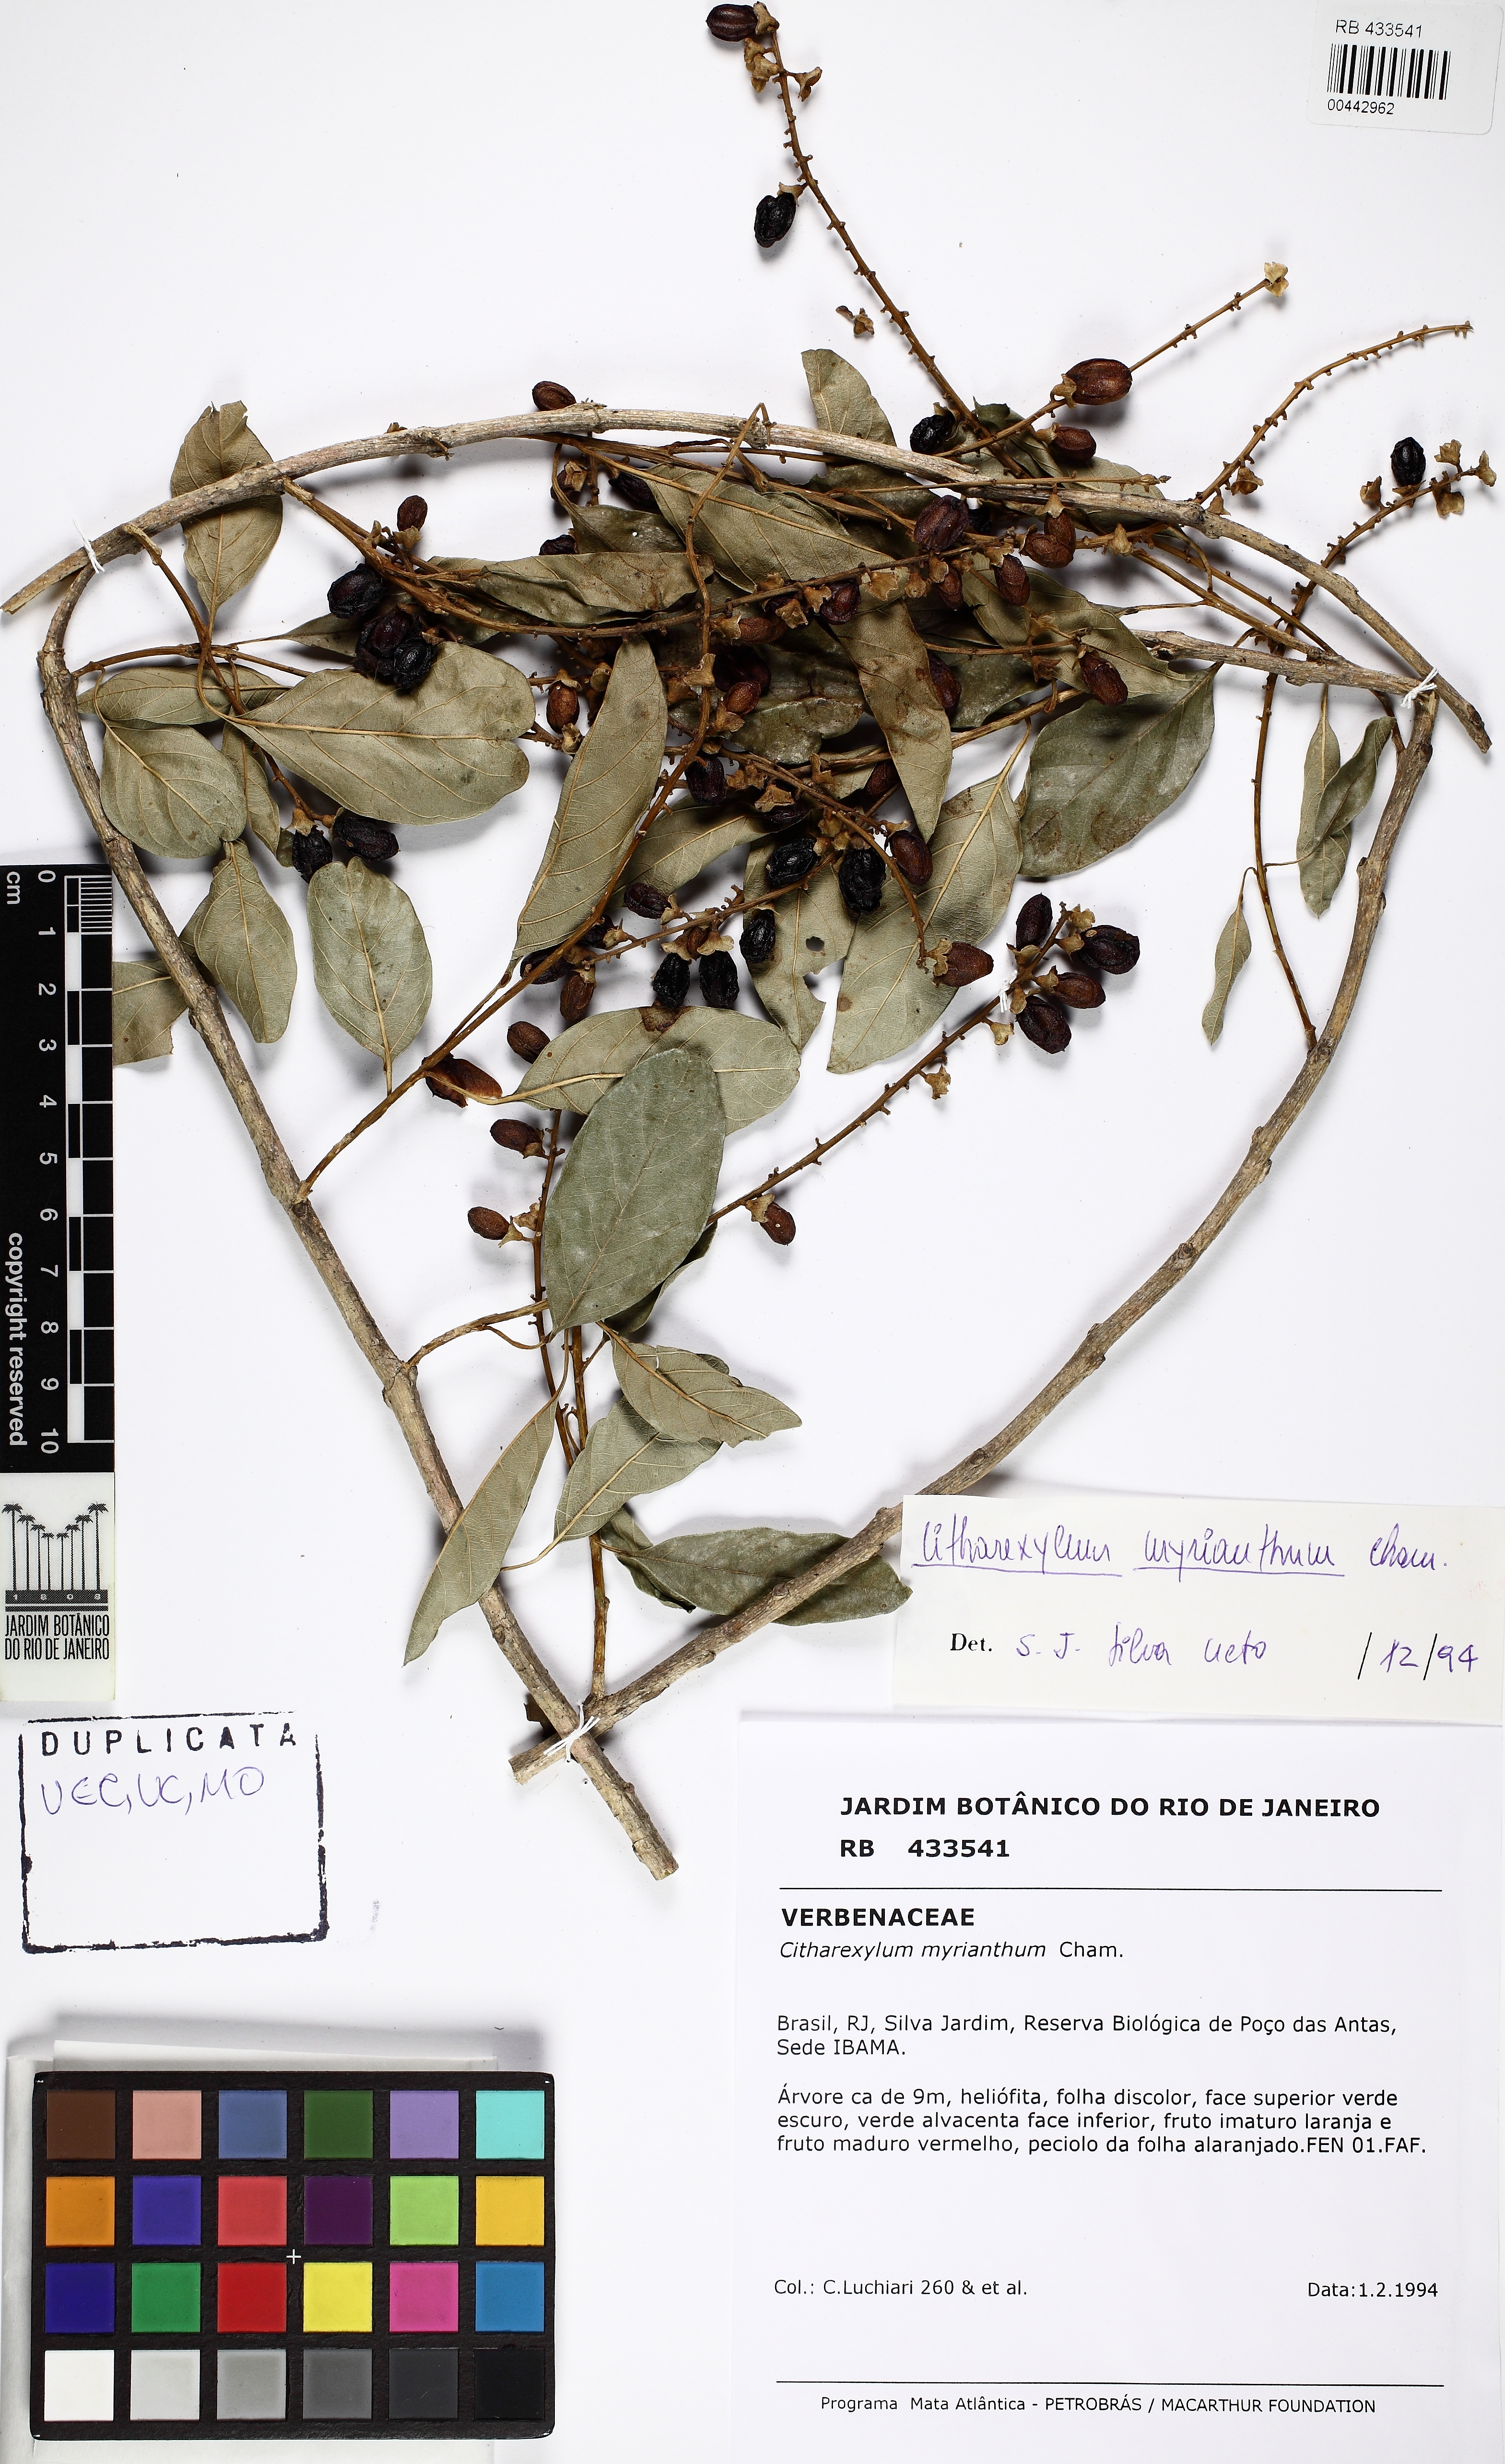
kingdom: Plantae
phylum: Tracheophyta
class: Magnoliopsida
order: Lamiales
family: Verbenaceae
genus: Citharexylum
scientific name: Citharexylum myrianthum
